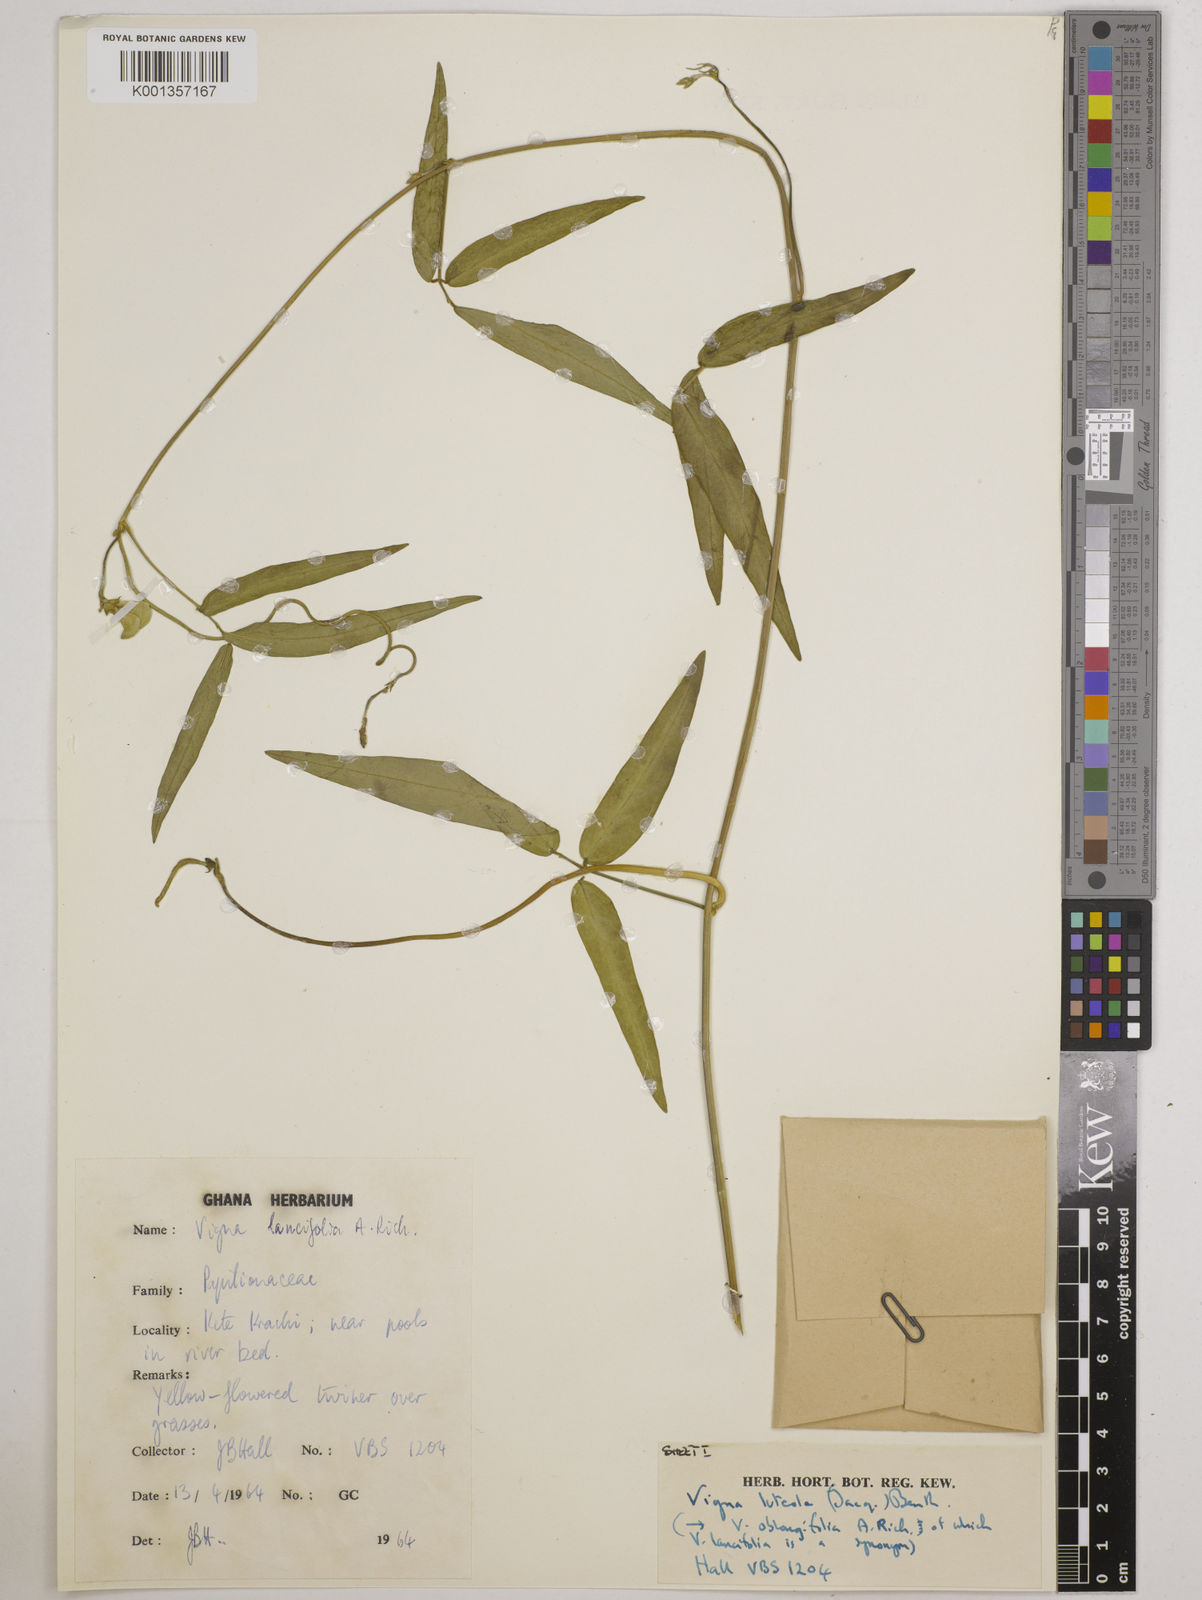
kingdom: Plantae
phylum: Tracheophyta
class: Magnoliopsida
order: Fabales
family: Fabaceae
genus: Vigna
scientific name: Vigna oblongifolia
